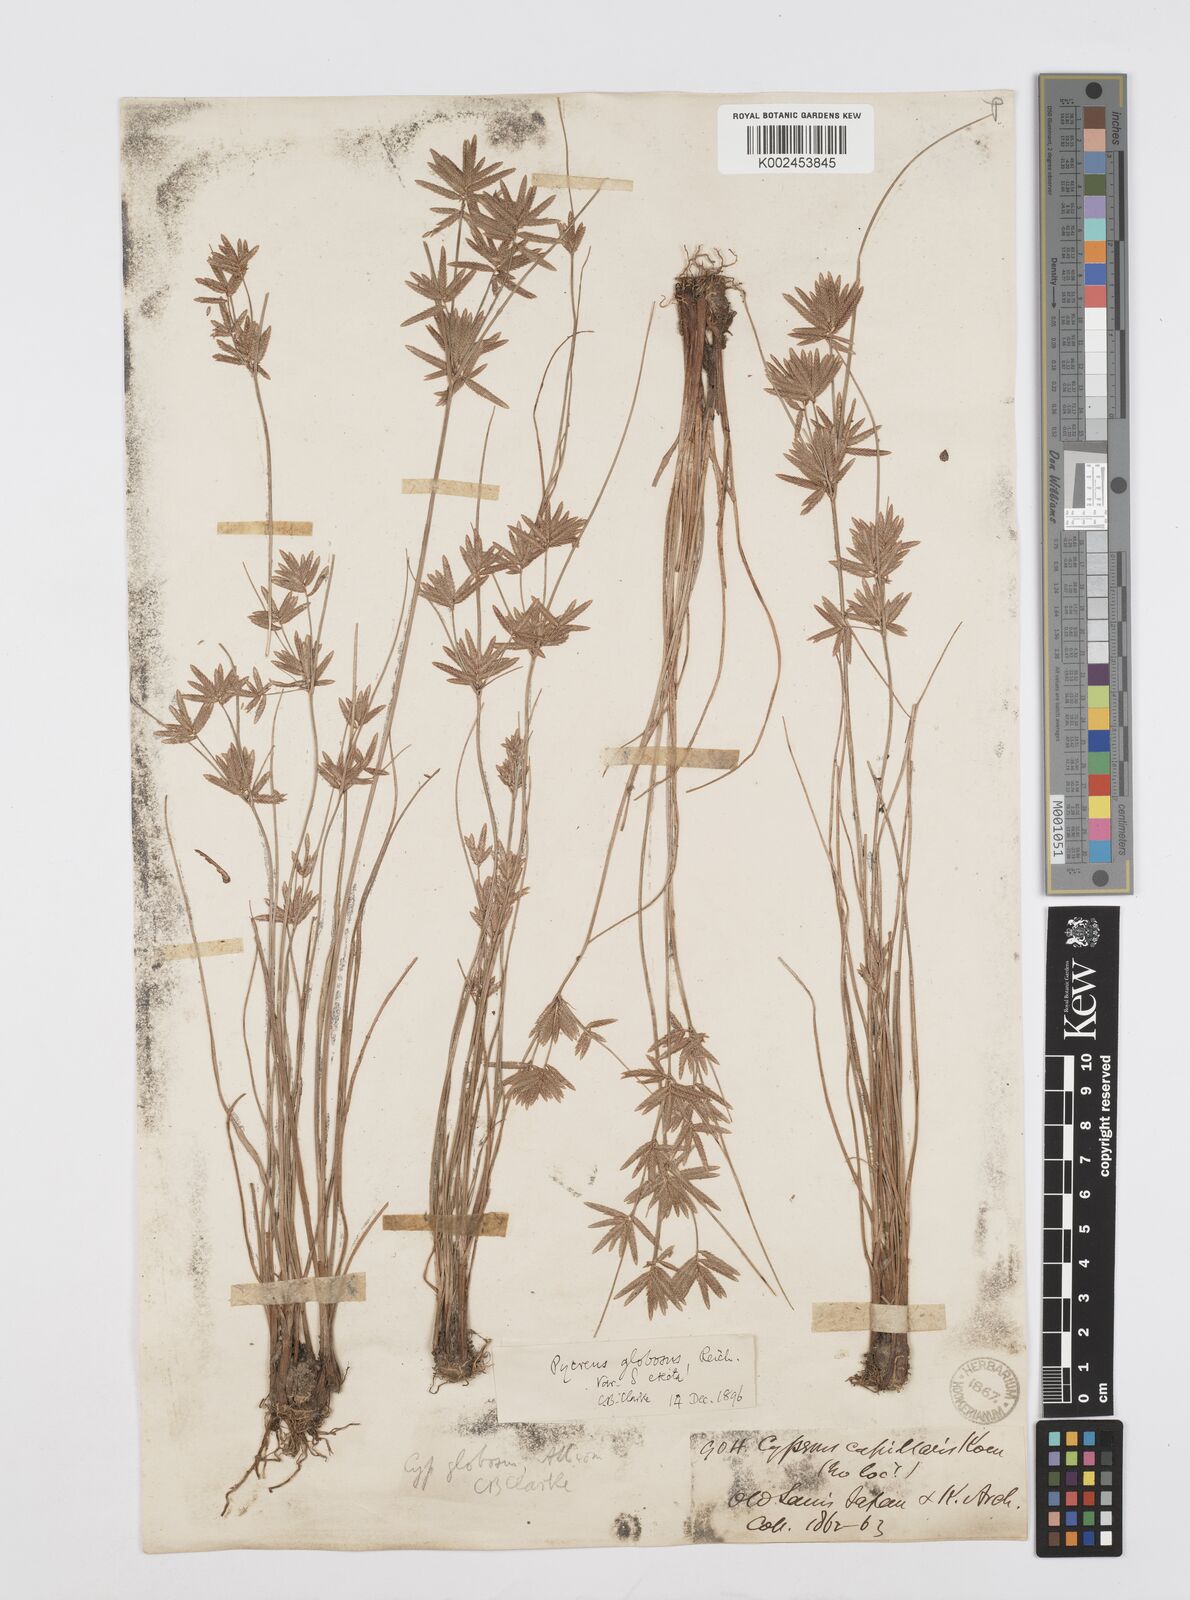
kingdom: Plantae
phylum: Tracheophyta
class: Liliopsida
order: Poales
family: Cyperaceae
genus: Cyperus
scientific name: Cyperus flavidus
